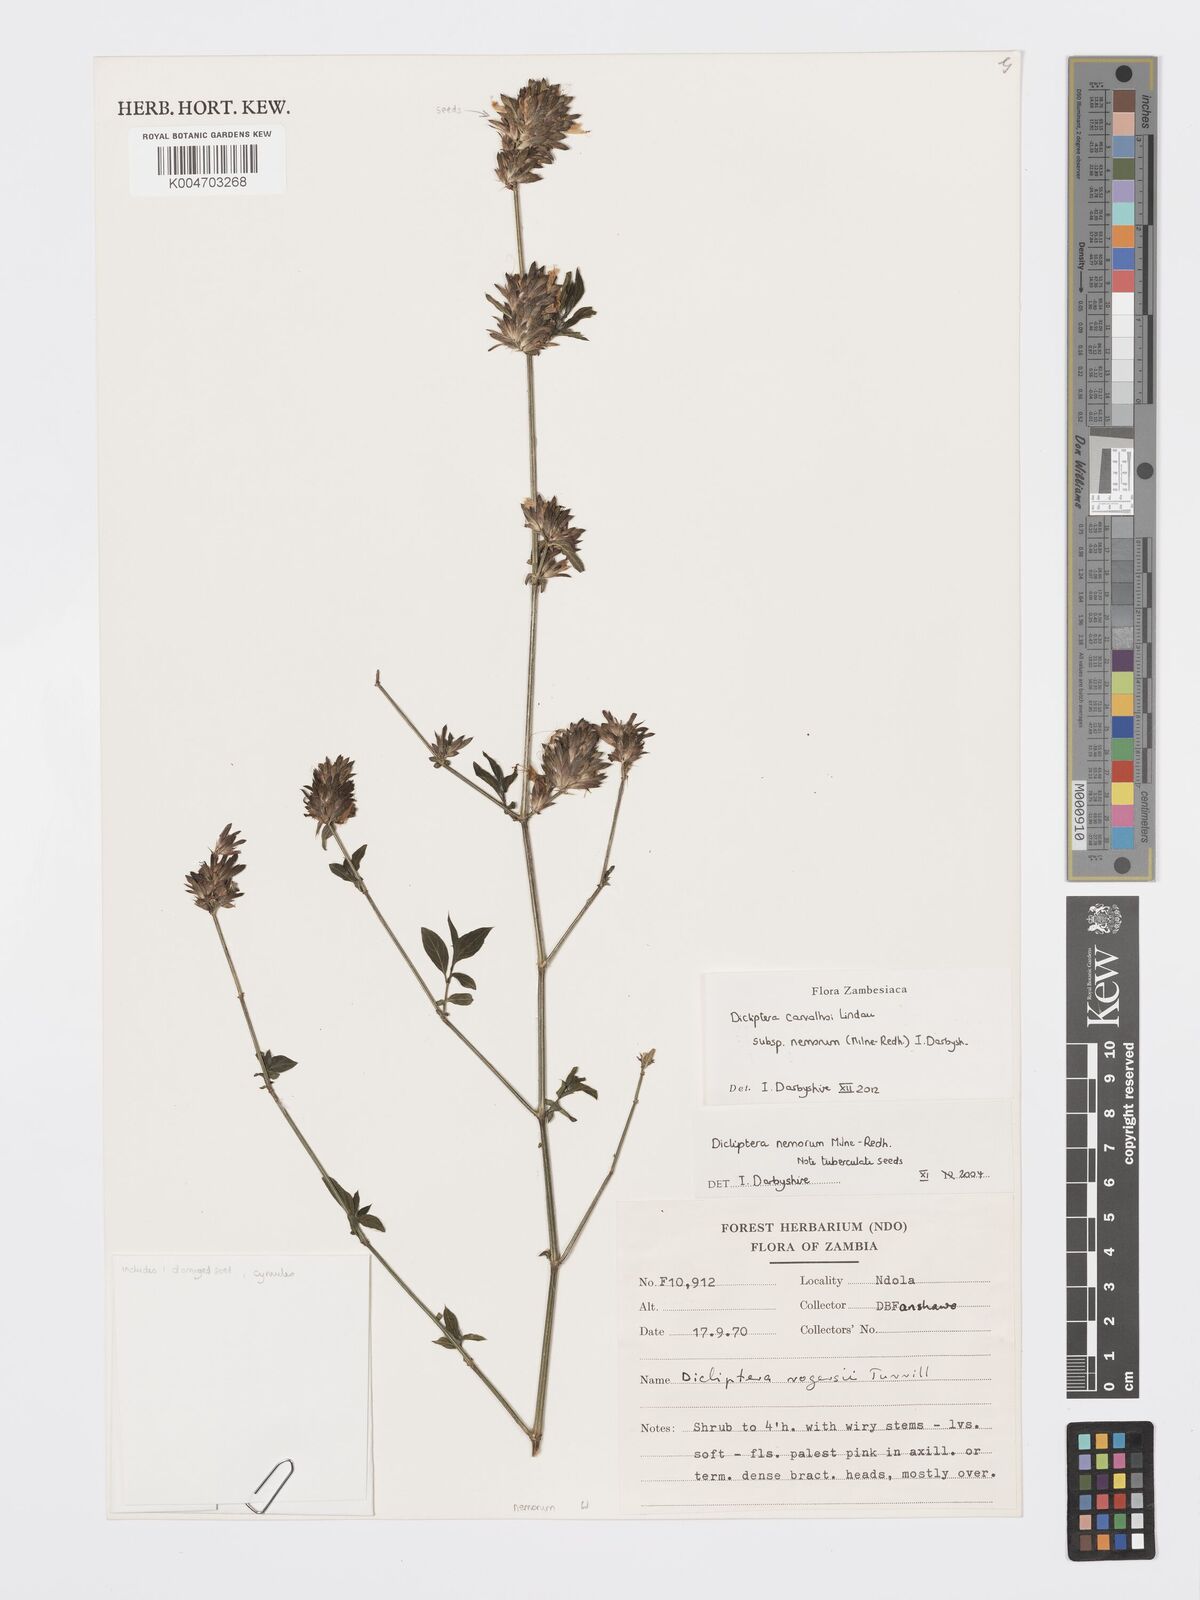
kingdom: Plantae
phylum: Tracheophyta
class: Magnoliopsida
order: Lamiales
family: Acanthaceae
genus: Dicliptera
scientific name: Dicliptera carvalhoi
